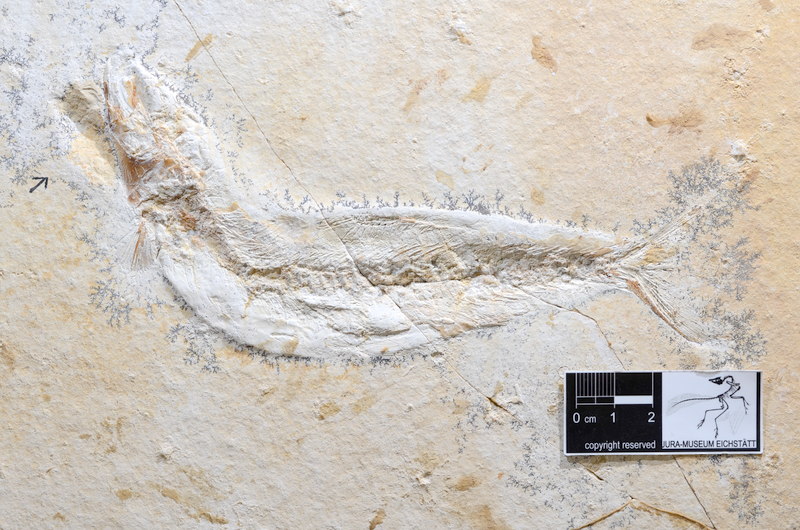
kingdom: Animalia
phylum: Chordata
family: Ascalaboidae
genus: Tharsis
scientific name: Tharsis dubius
